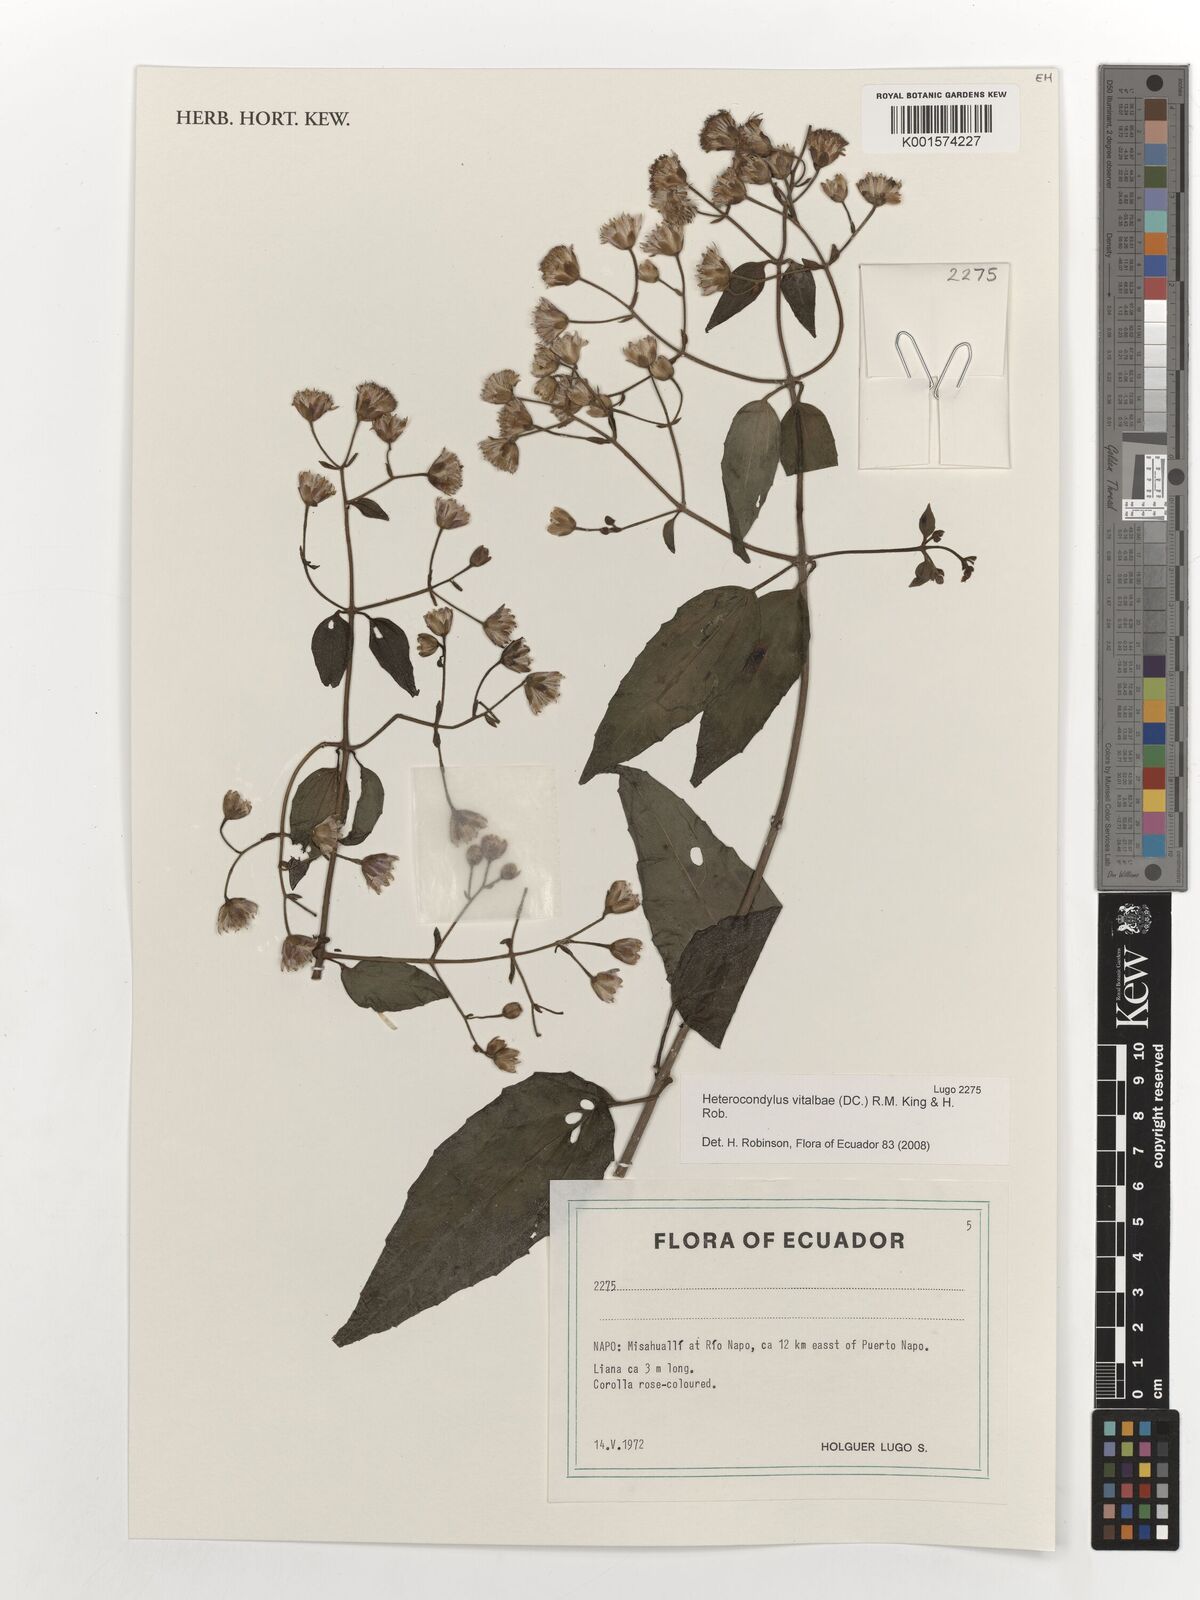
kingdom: Plantae
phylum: Tracheophyta
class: Magnoliopsida
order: Asterales
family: Asteraceae
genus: Heterocondylus
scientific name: Heterocondylus vitalbae
